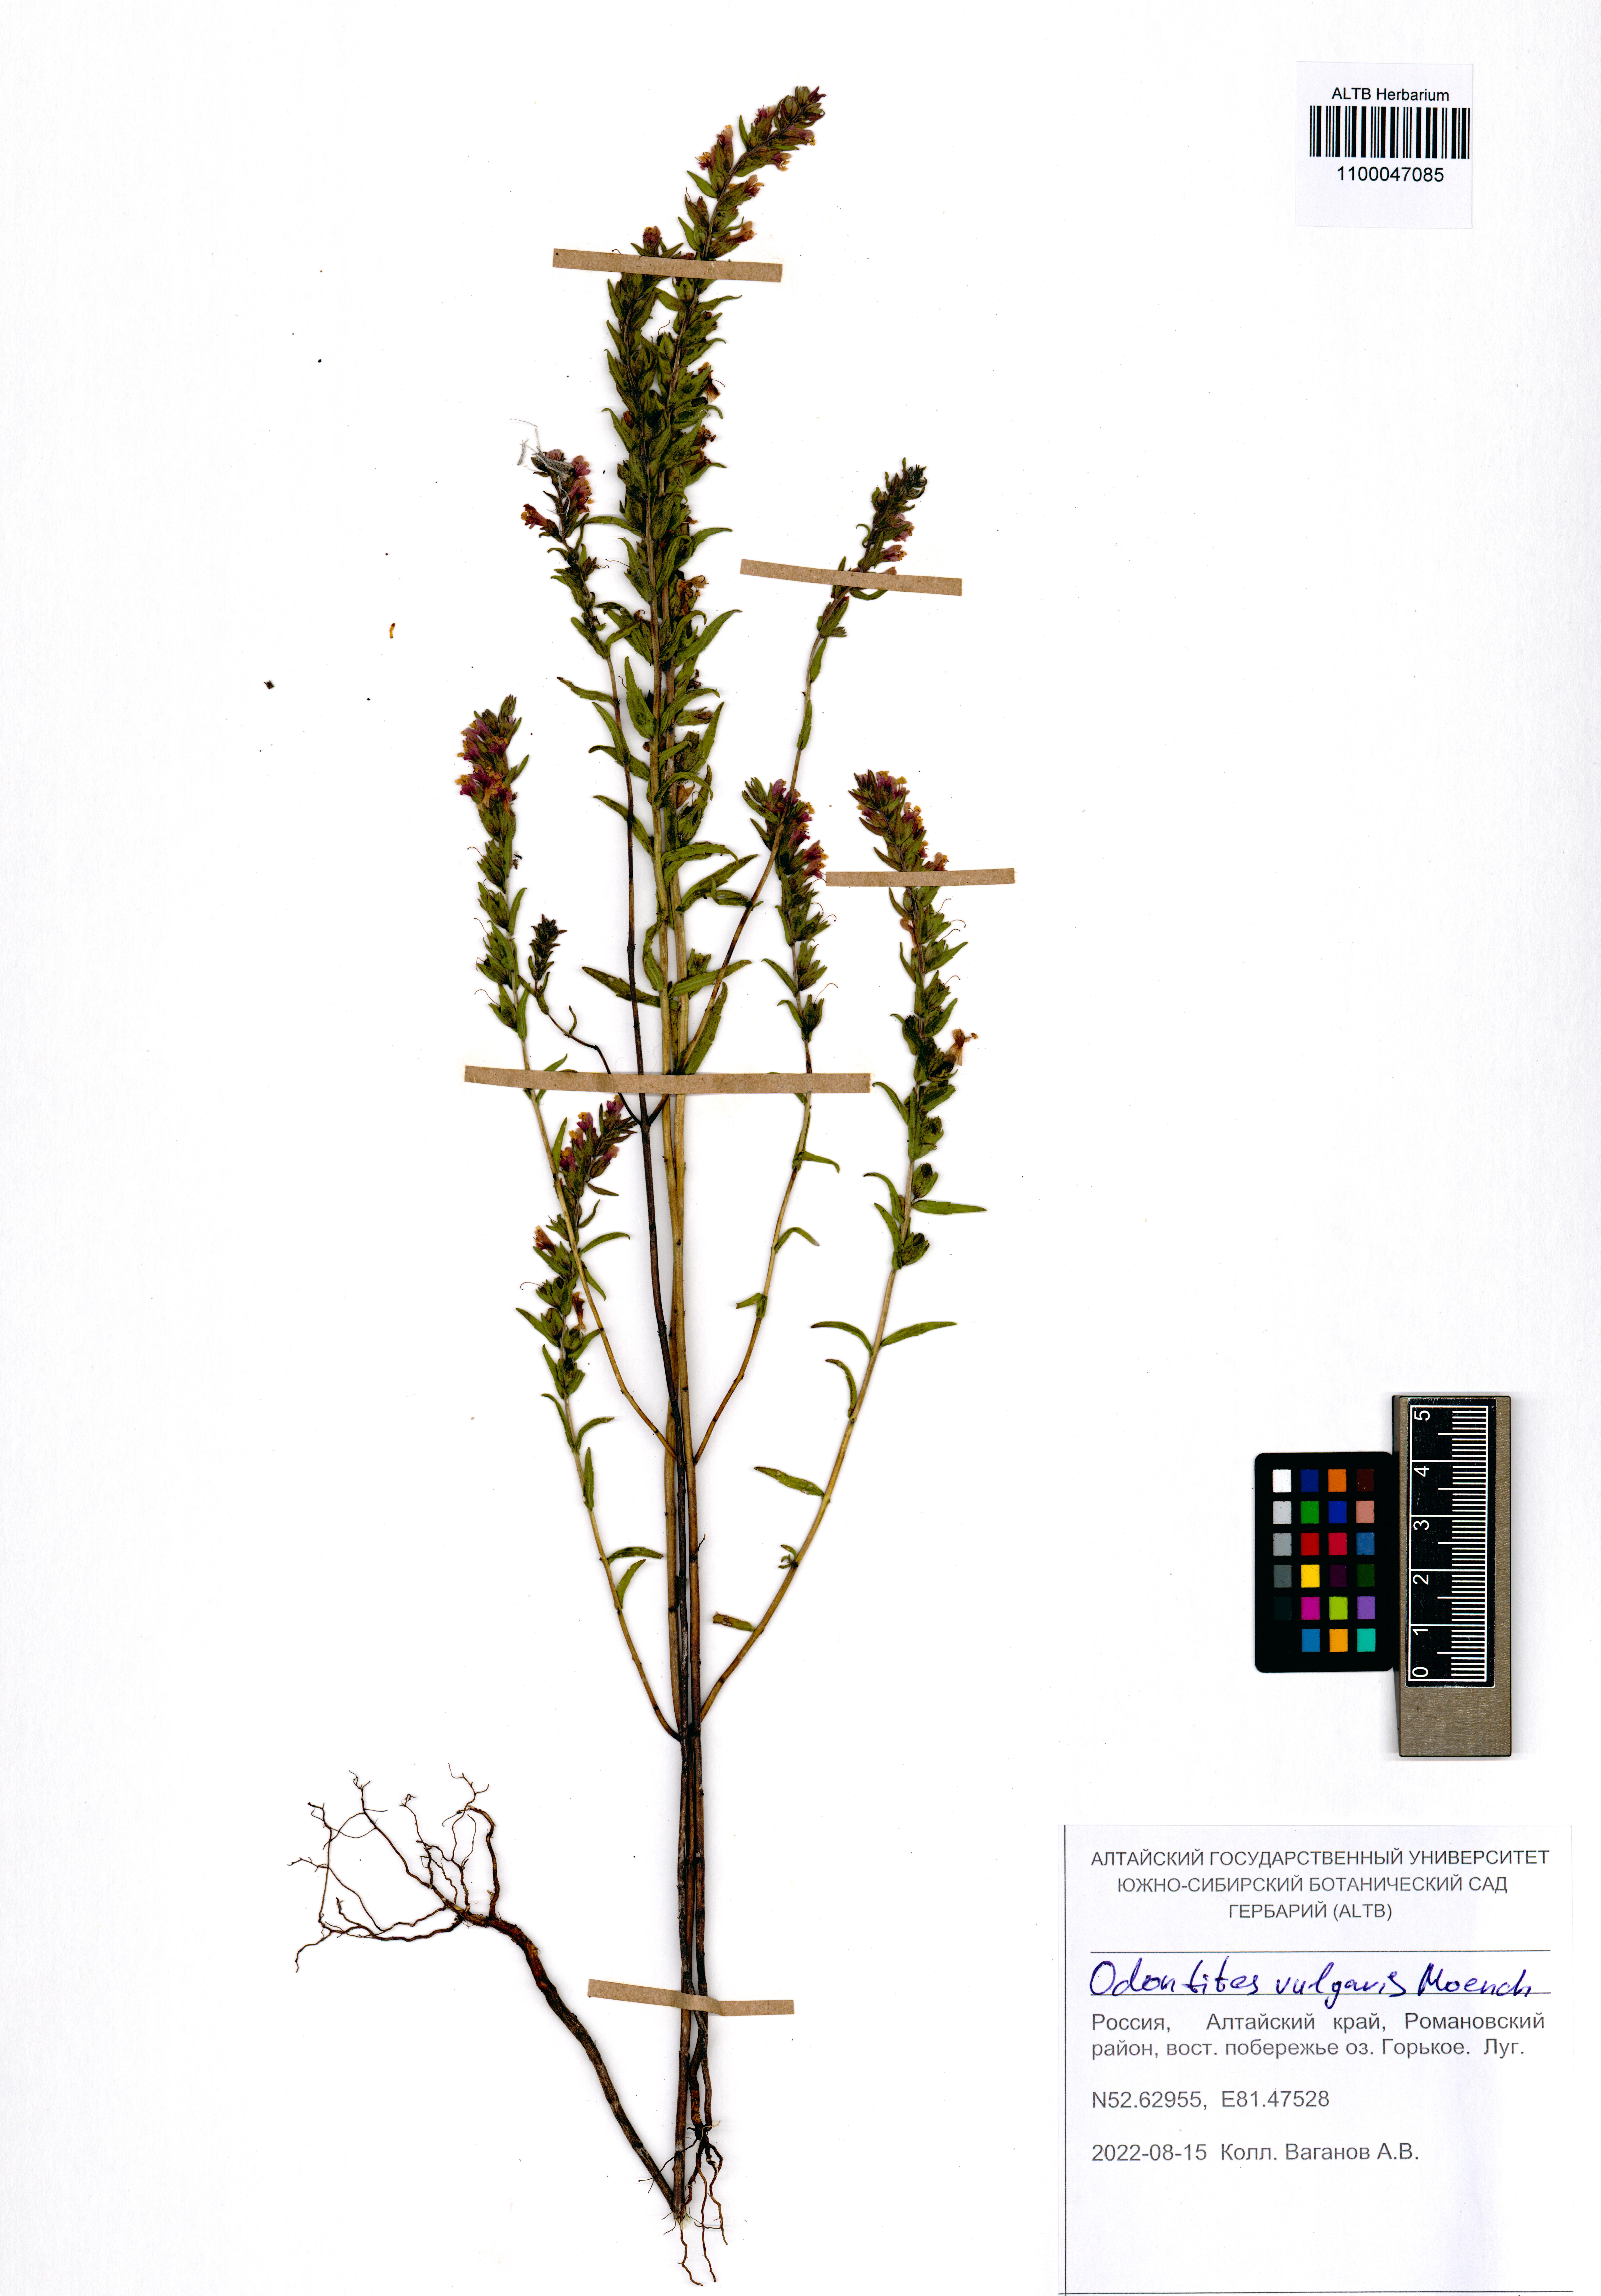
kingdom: Plantae
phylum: Tracheophyta
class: Magnoliopsida
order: Lamiales
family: Orobanchaceae
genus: Odontites
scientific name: Odontites vulgaris
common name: Broomrape
